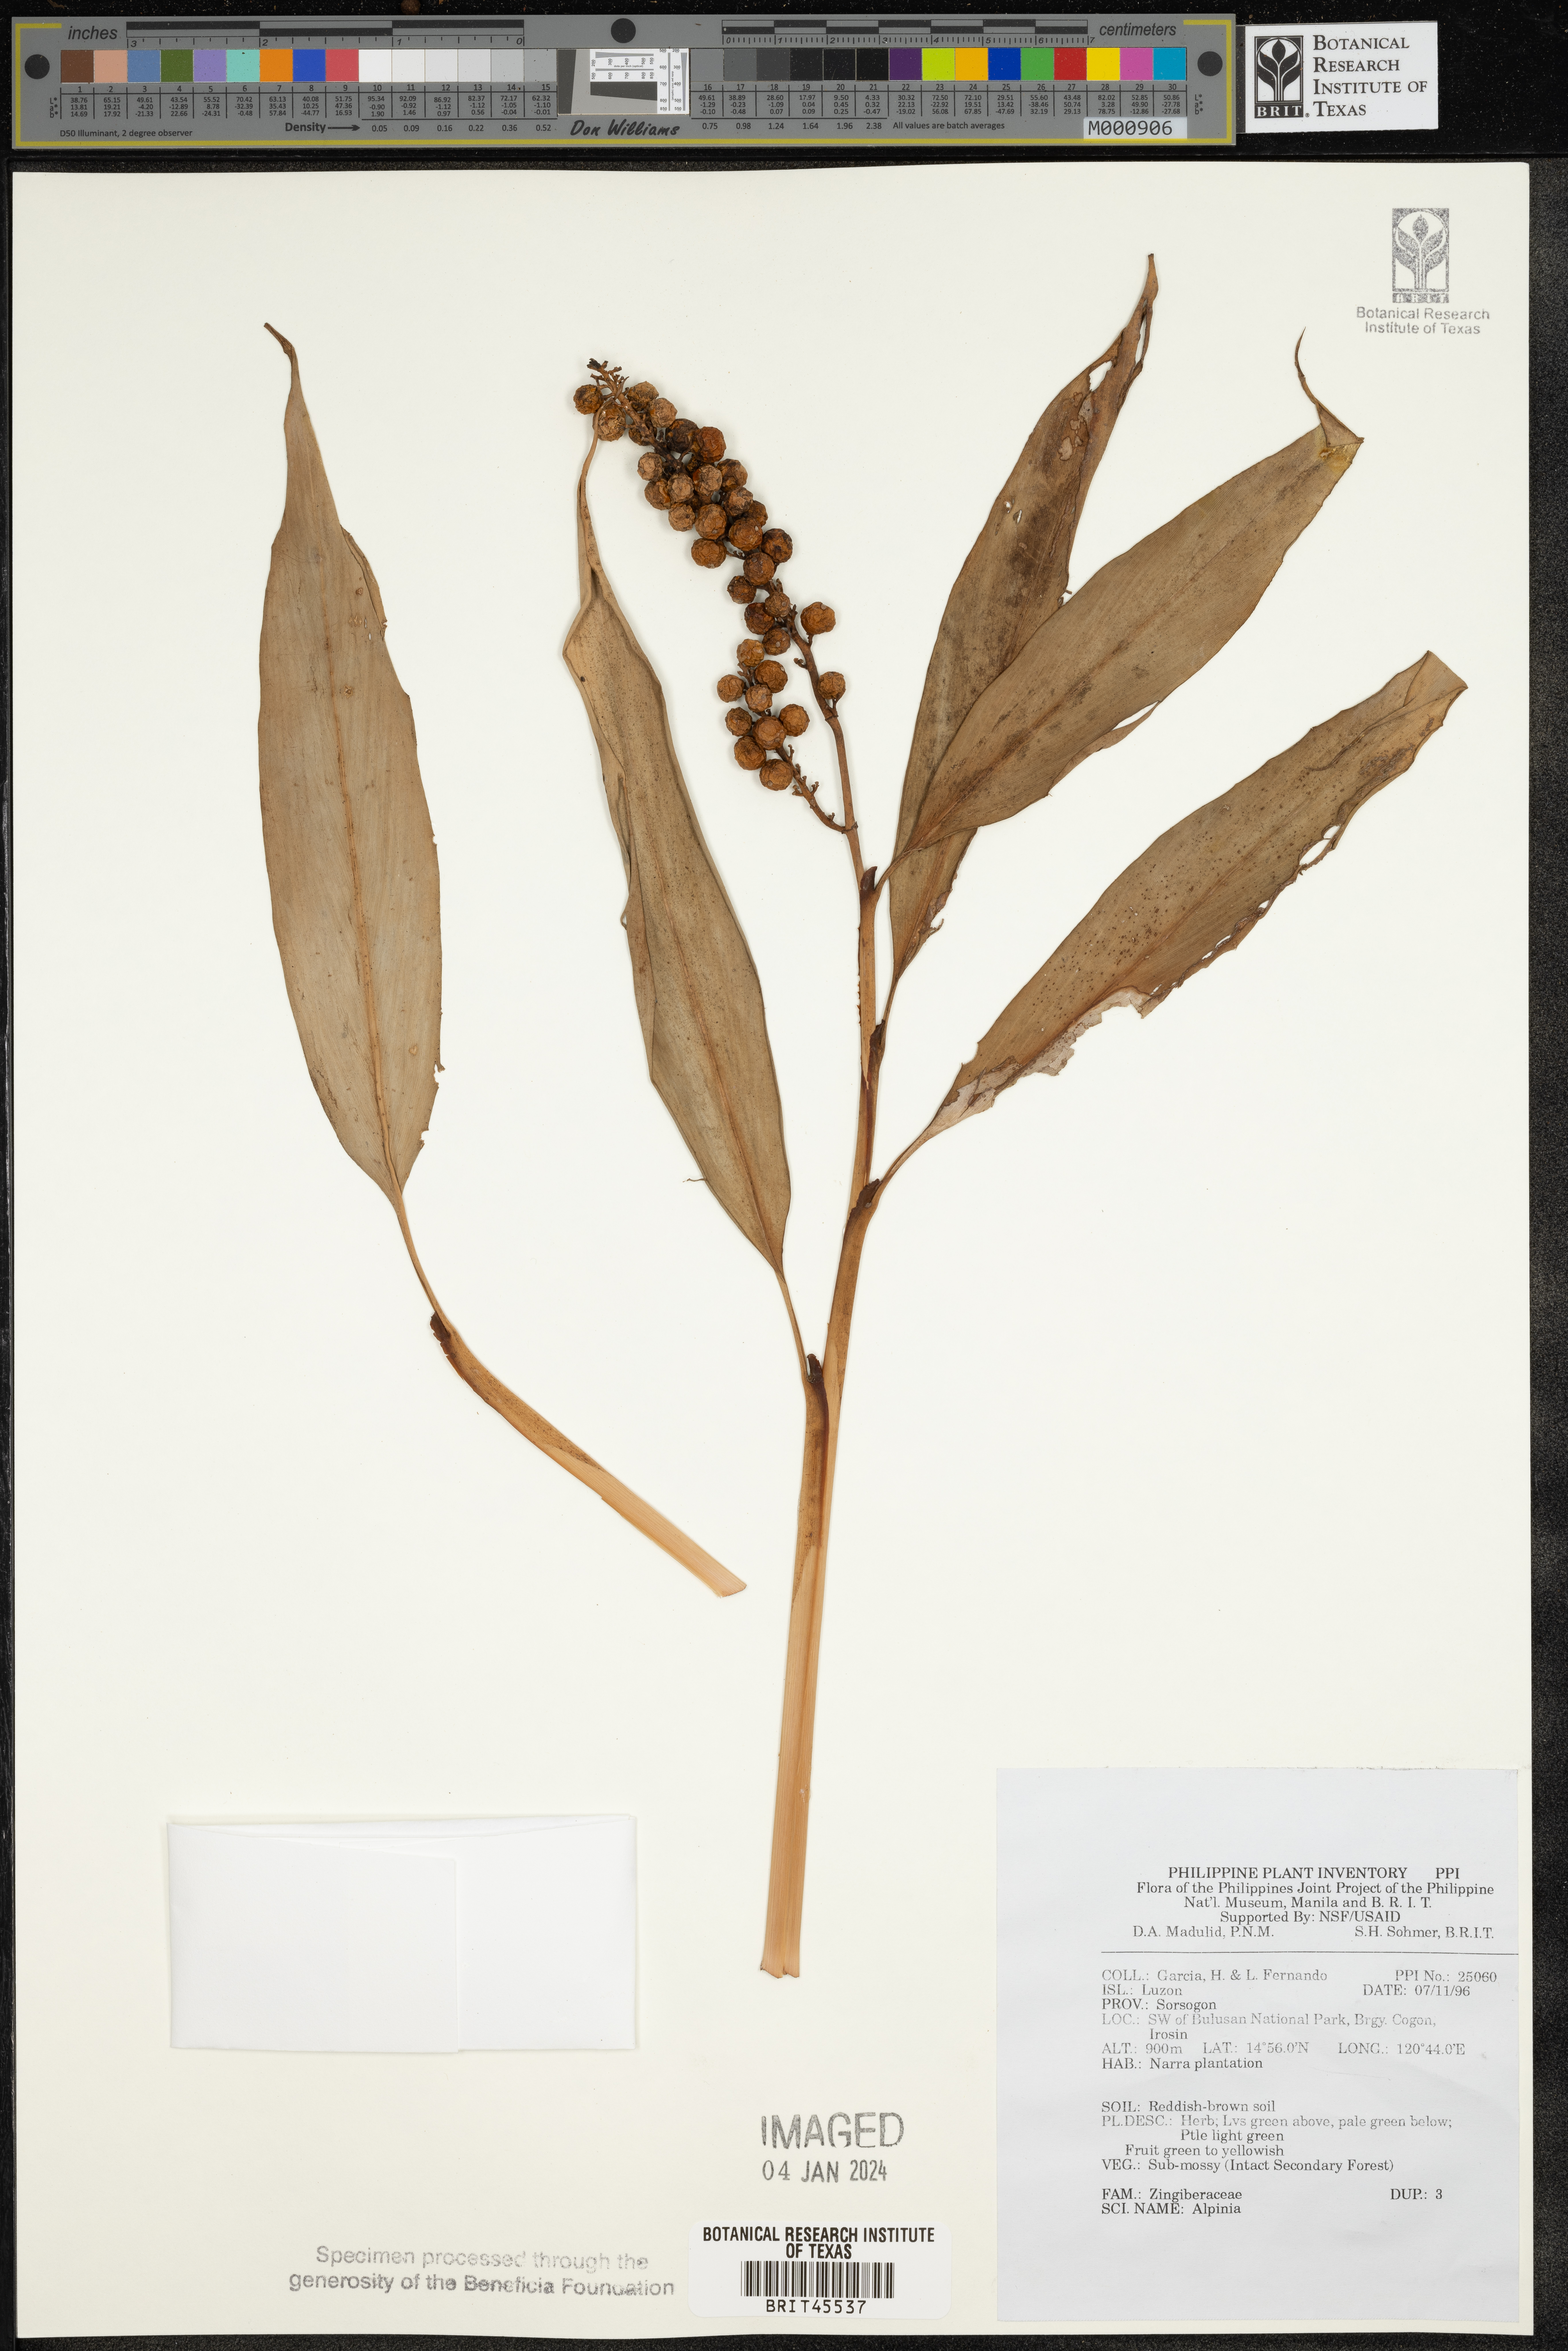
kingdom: Plantae
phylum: Tracheophyta
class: Liliopsida
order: Zingiberales
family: Zingiberaceae
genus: Alpinia
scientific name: Alpinia
